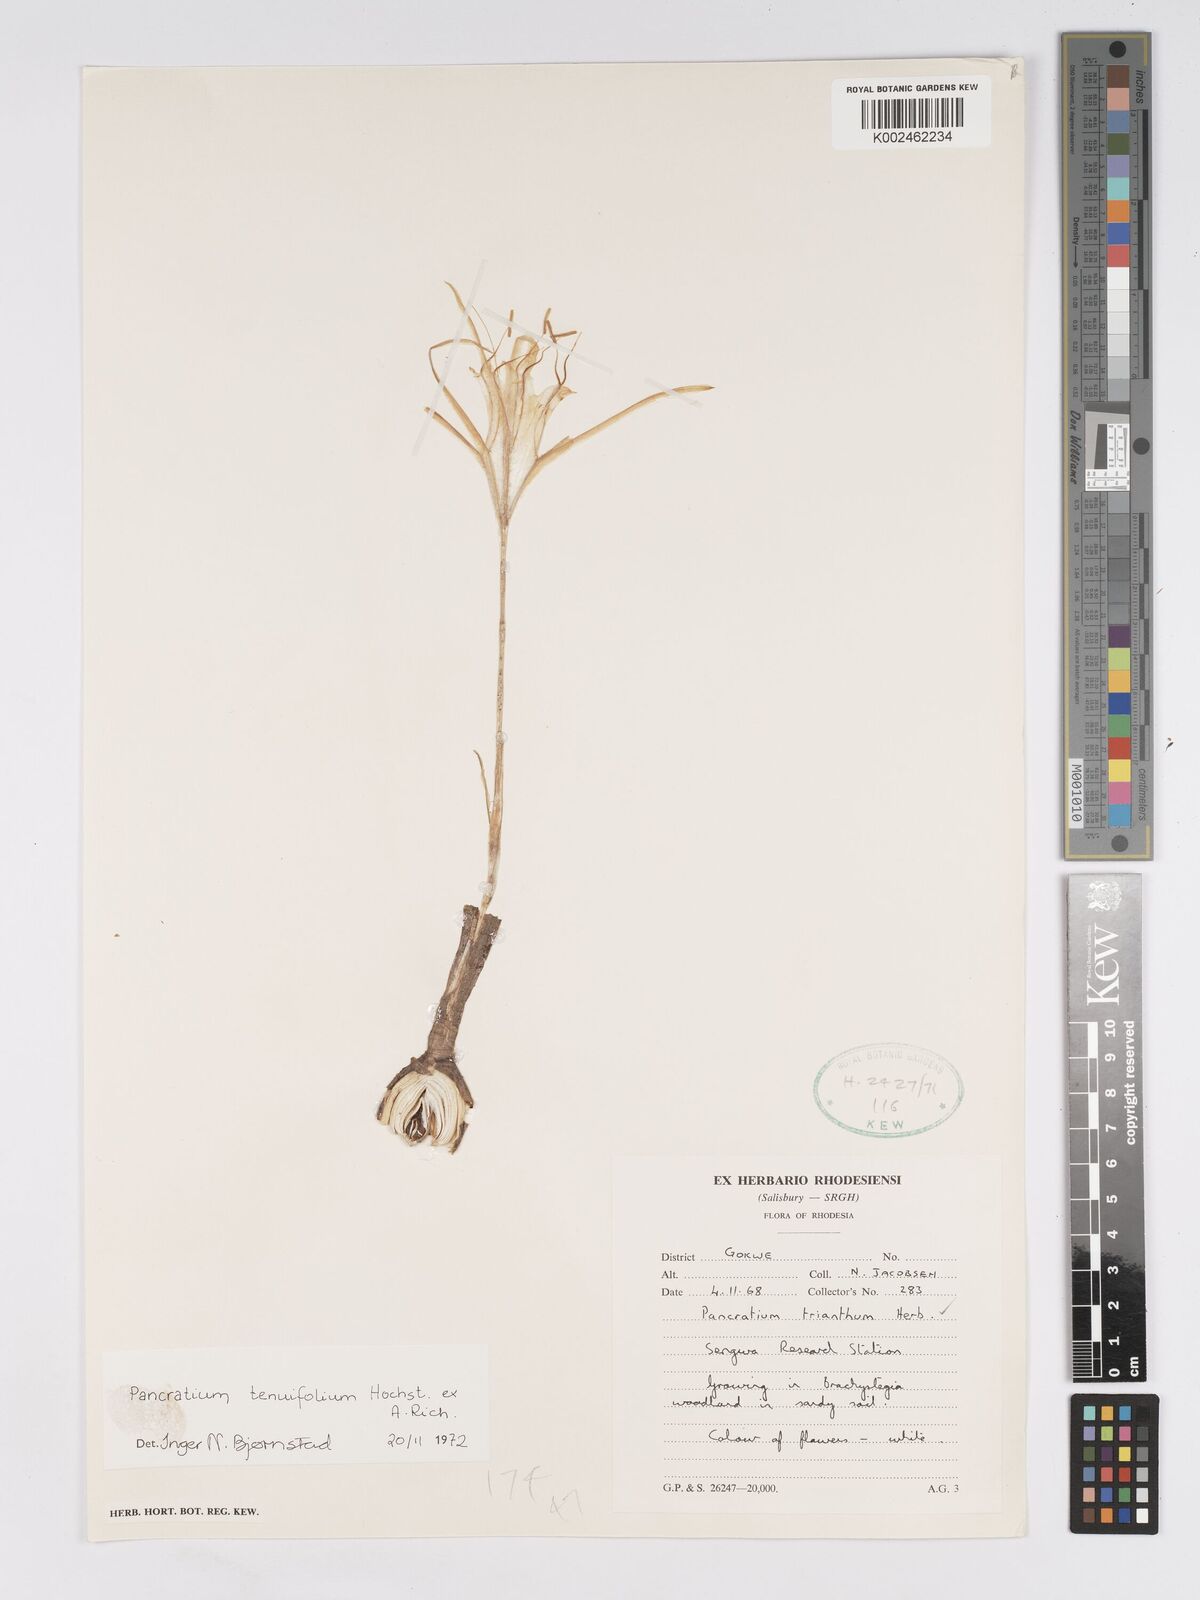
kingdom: Plantae
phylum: Tracheophyta
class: Liliopsida
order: Asparagales
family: Amaryllidaceae
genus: Pancratium
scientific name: Pancratium tenuifolium
